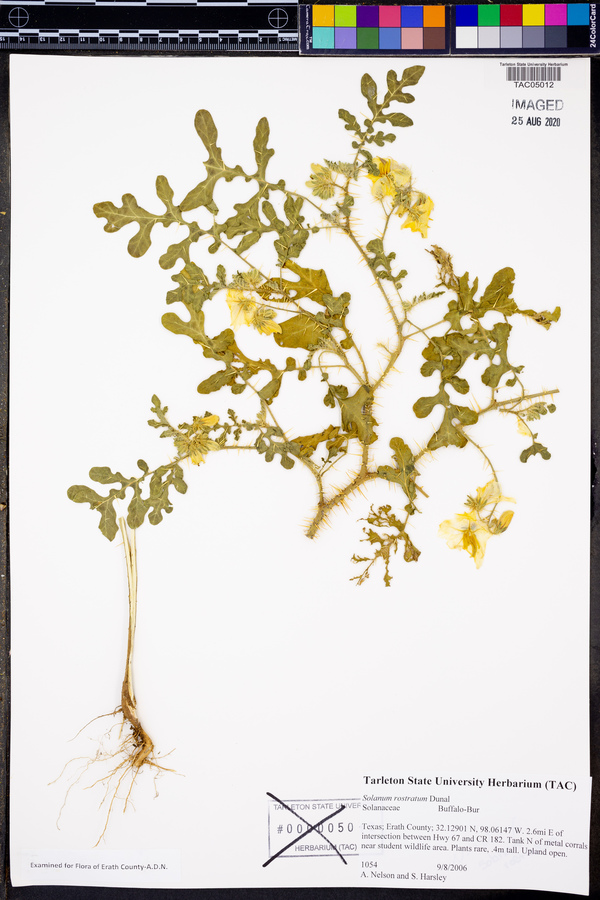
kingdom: Plantae
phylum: Tracheophyta
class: Magnoliopsida
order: Solanales
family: Solanaceae
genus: Solanum
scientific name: Solanum angustifolium
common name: Buffalobur nightshade
